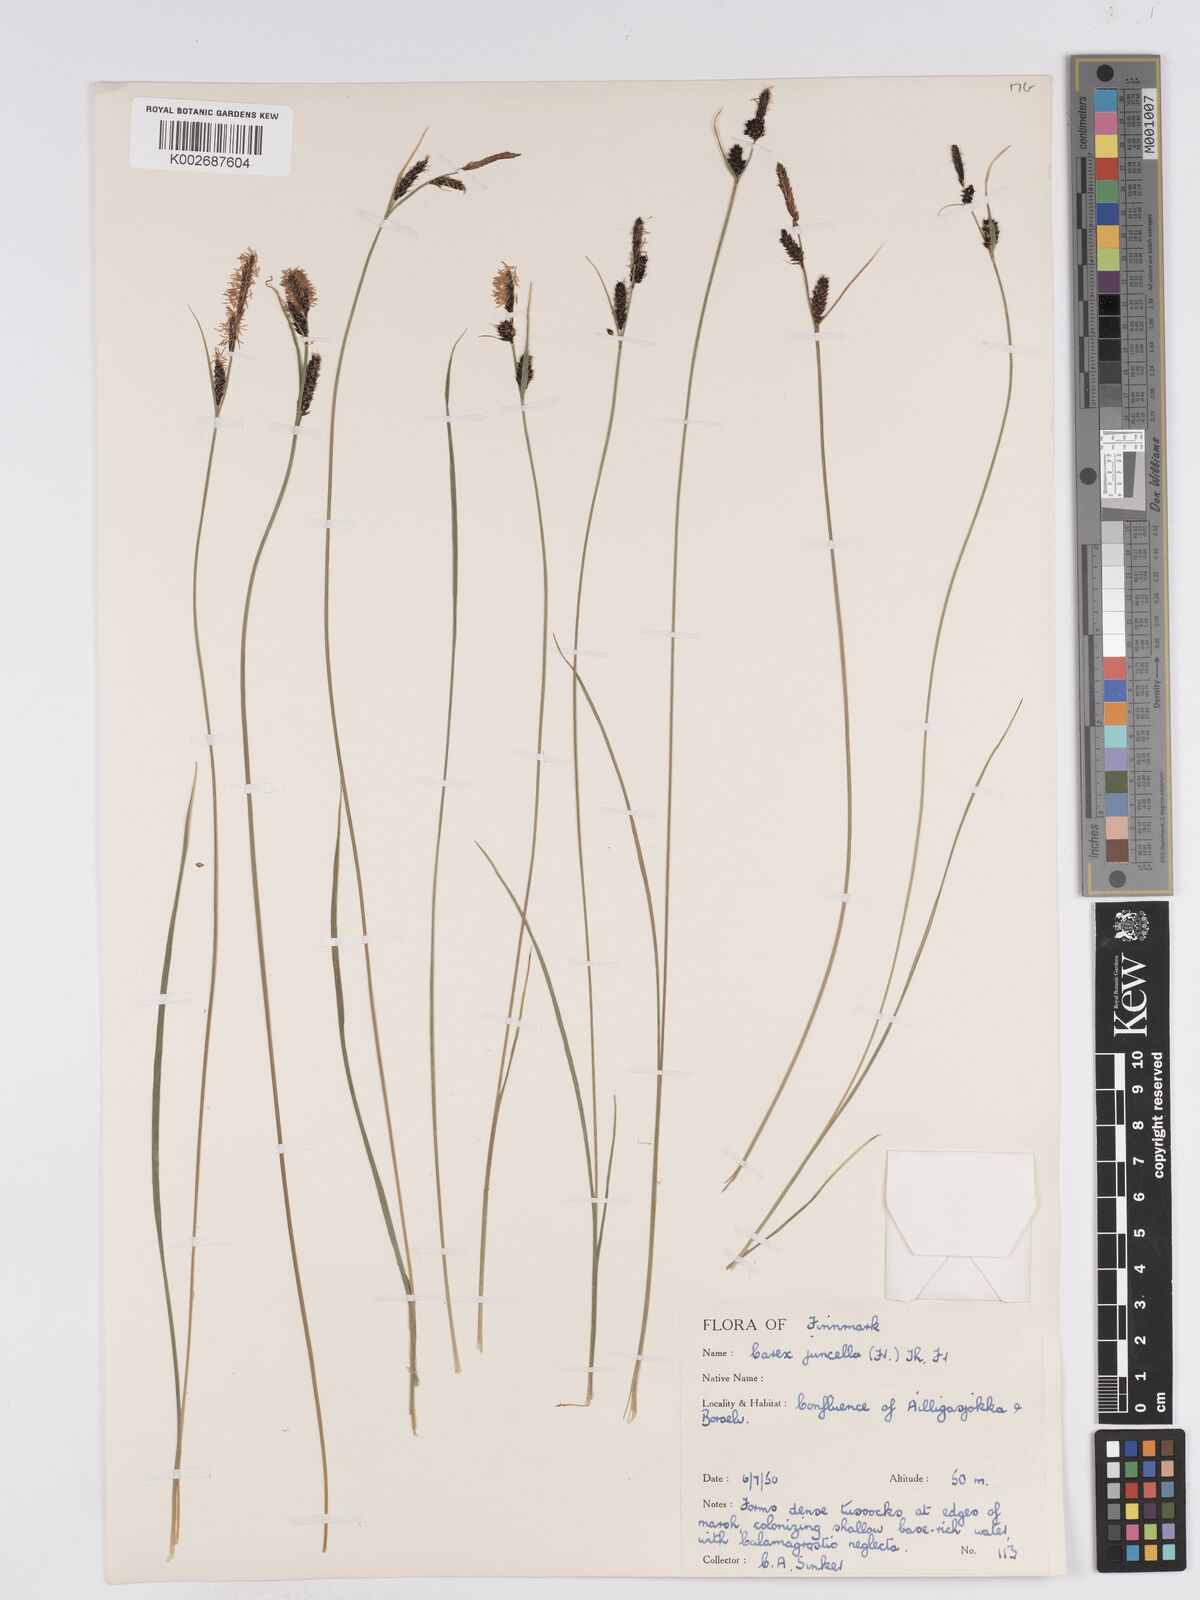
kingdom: Plantae
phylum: Tracheophyta
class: Liliopsida
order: Poales
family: Cyperaceae
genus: Carex
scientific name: Carex
